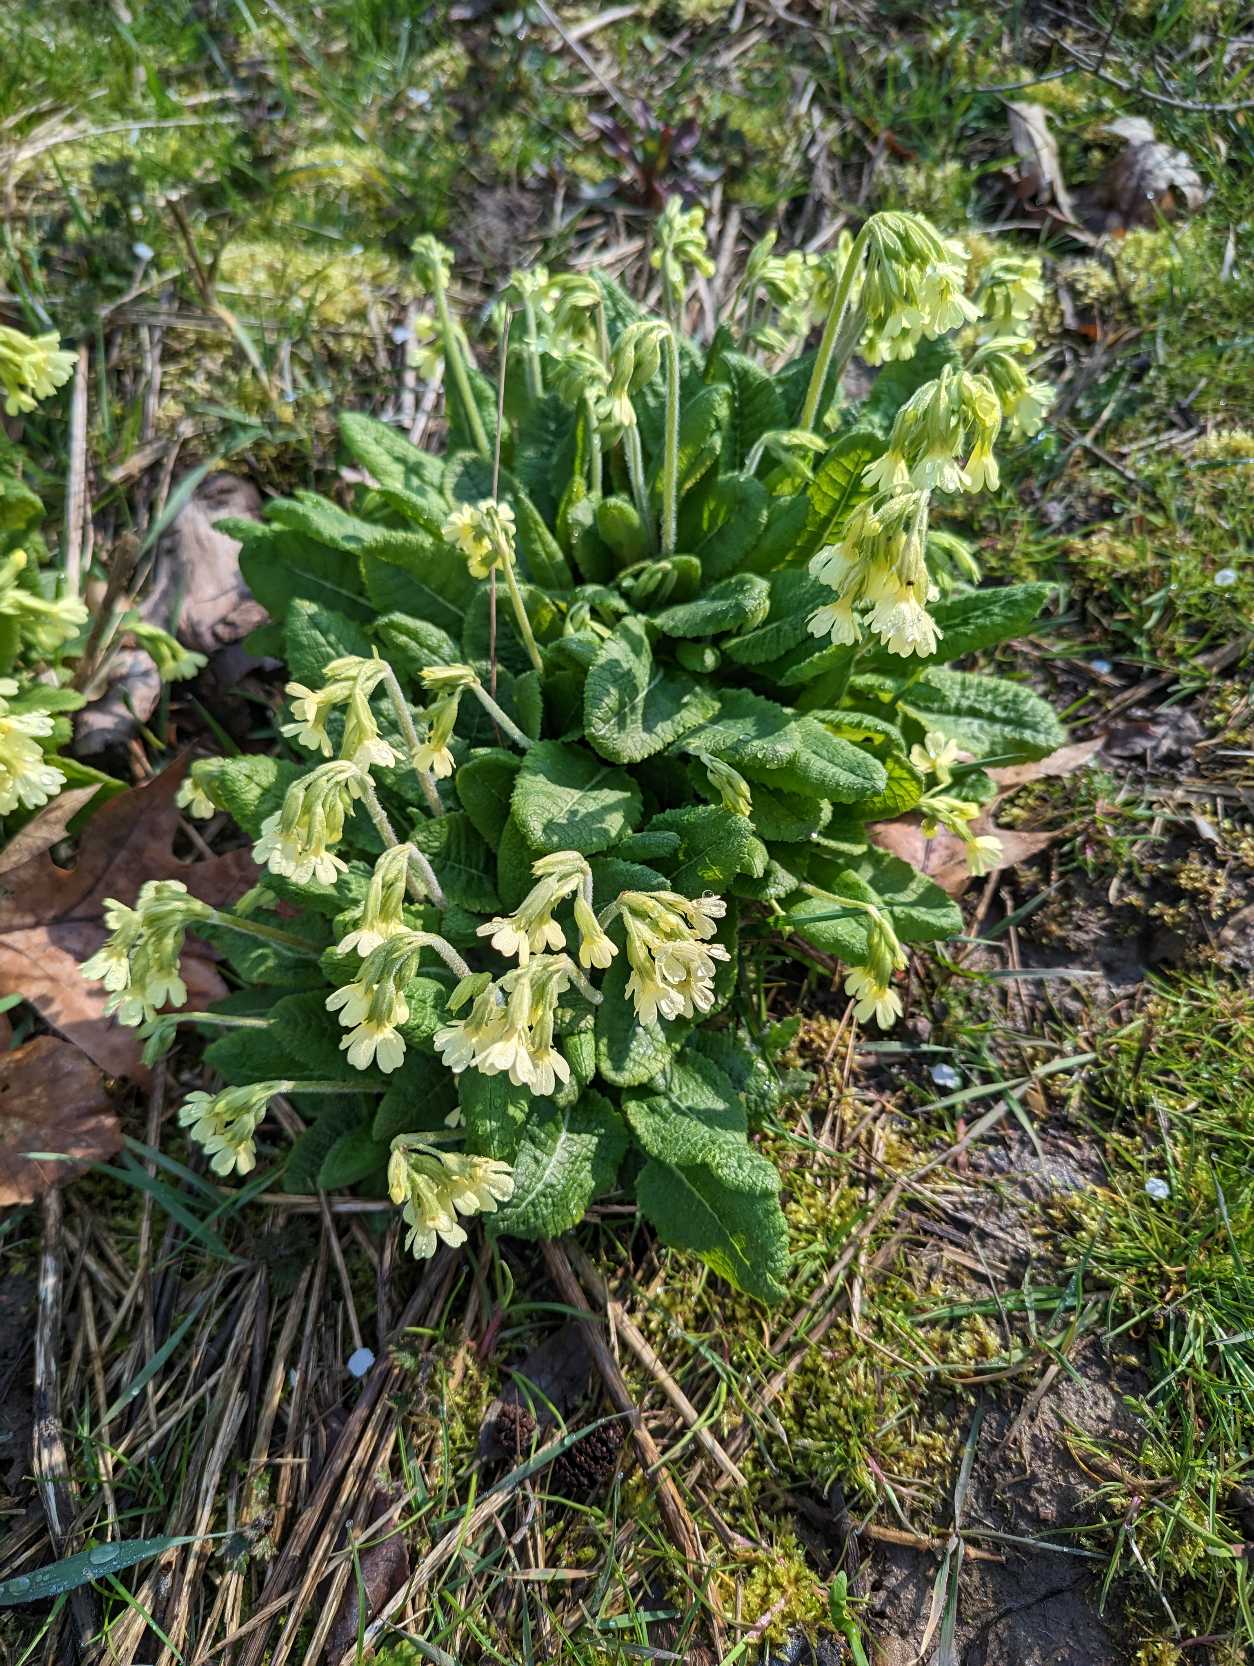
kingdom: Plantae
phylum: Tracheophyta
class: Magnoliopsida
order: Ericales
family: Primulaceae
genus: Primula
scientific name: Primula elatior
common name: Fladkravet kodriver
